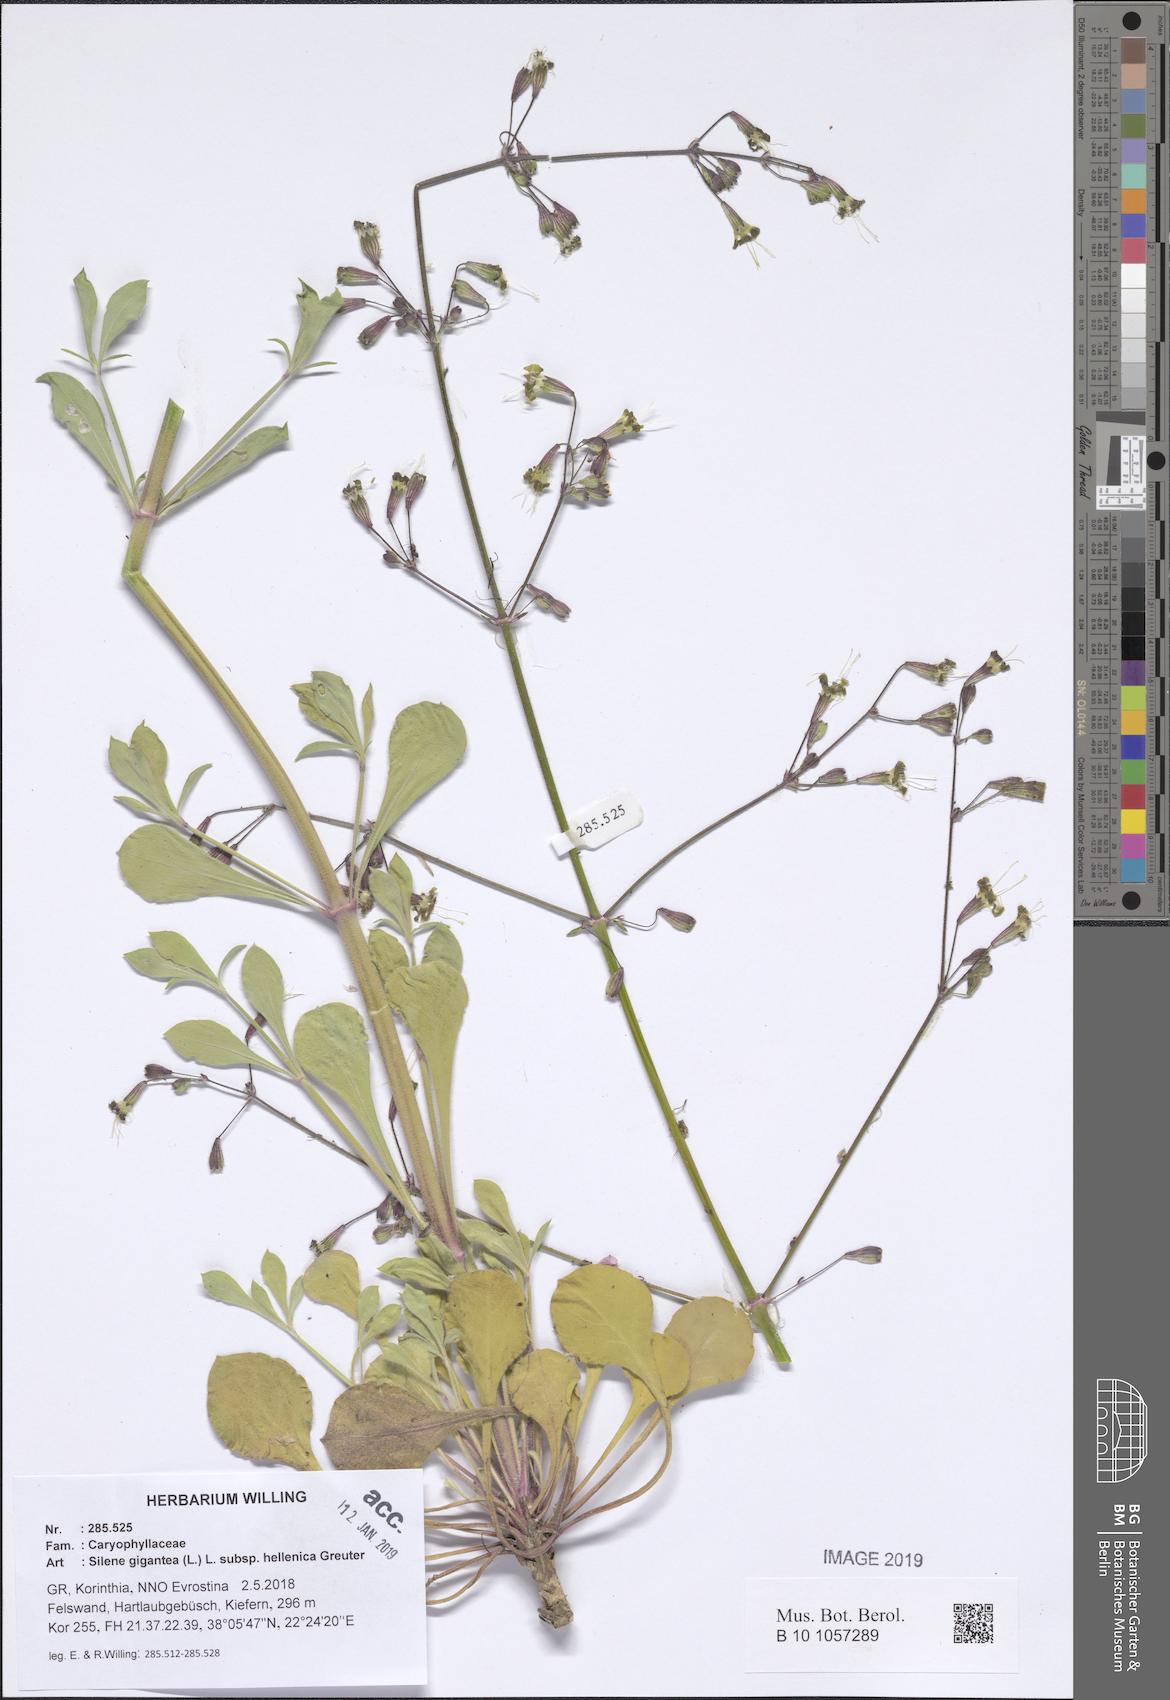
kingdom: Plantae
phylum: Tracheophyta
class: Magnoliopsida
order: Caryophyllales
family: Caryophyllaceae
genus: Silene
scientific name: Silene gigantea
